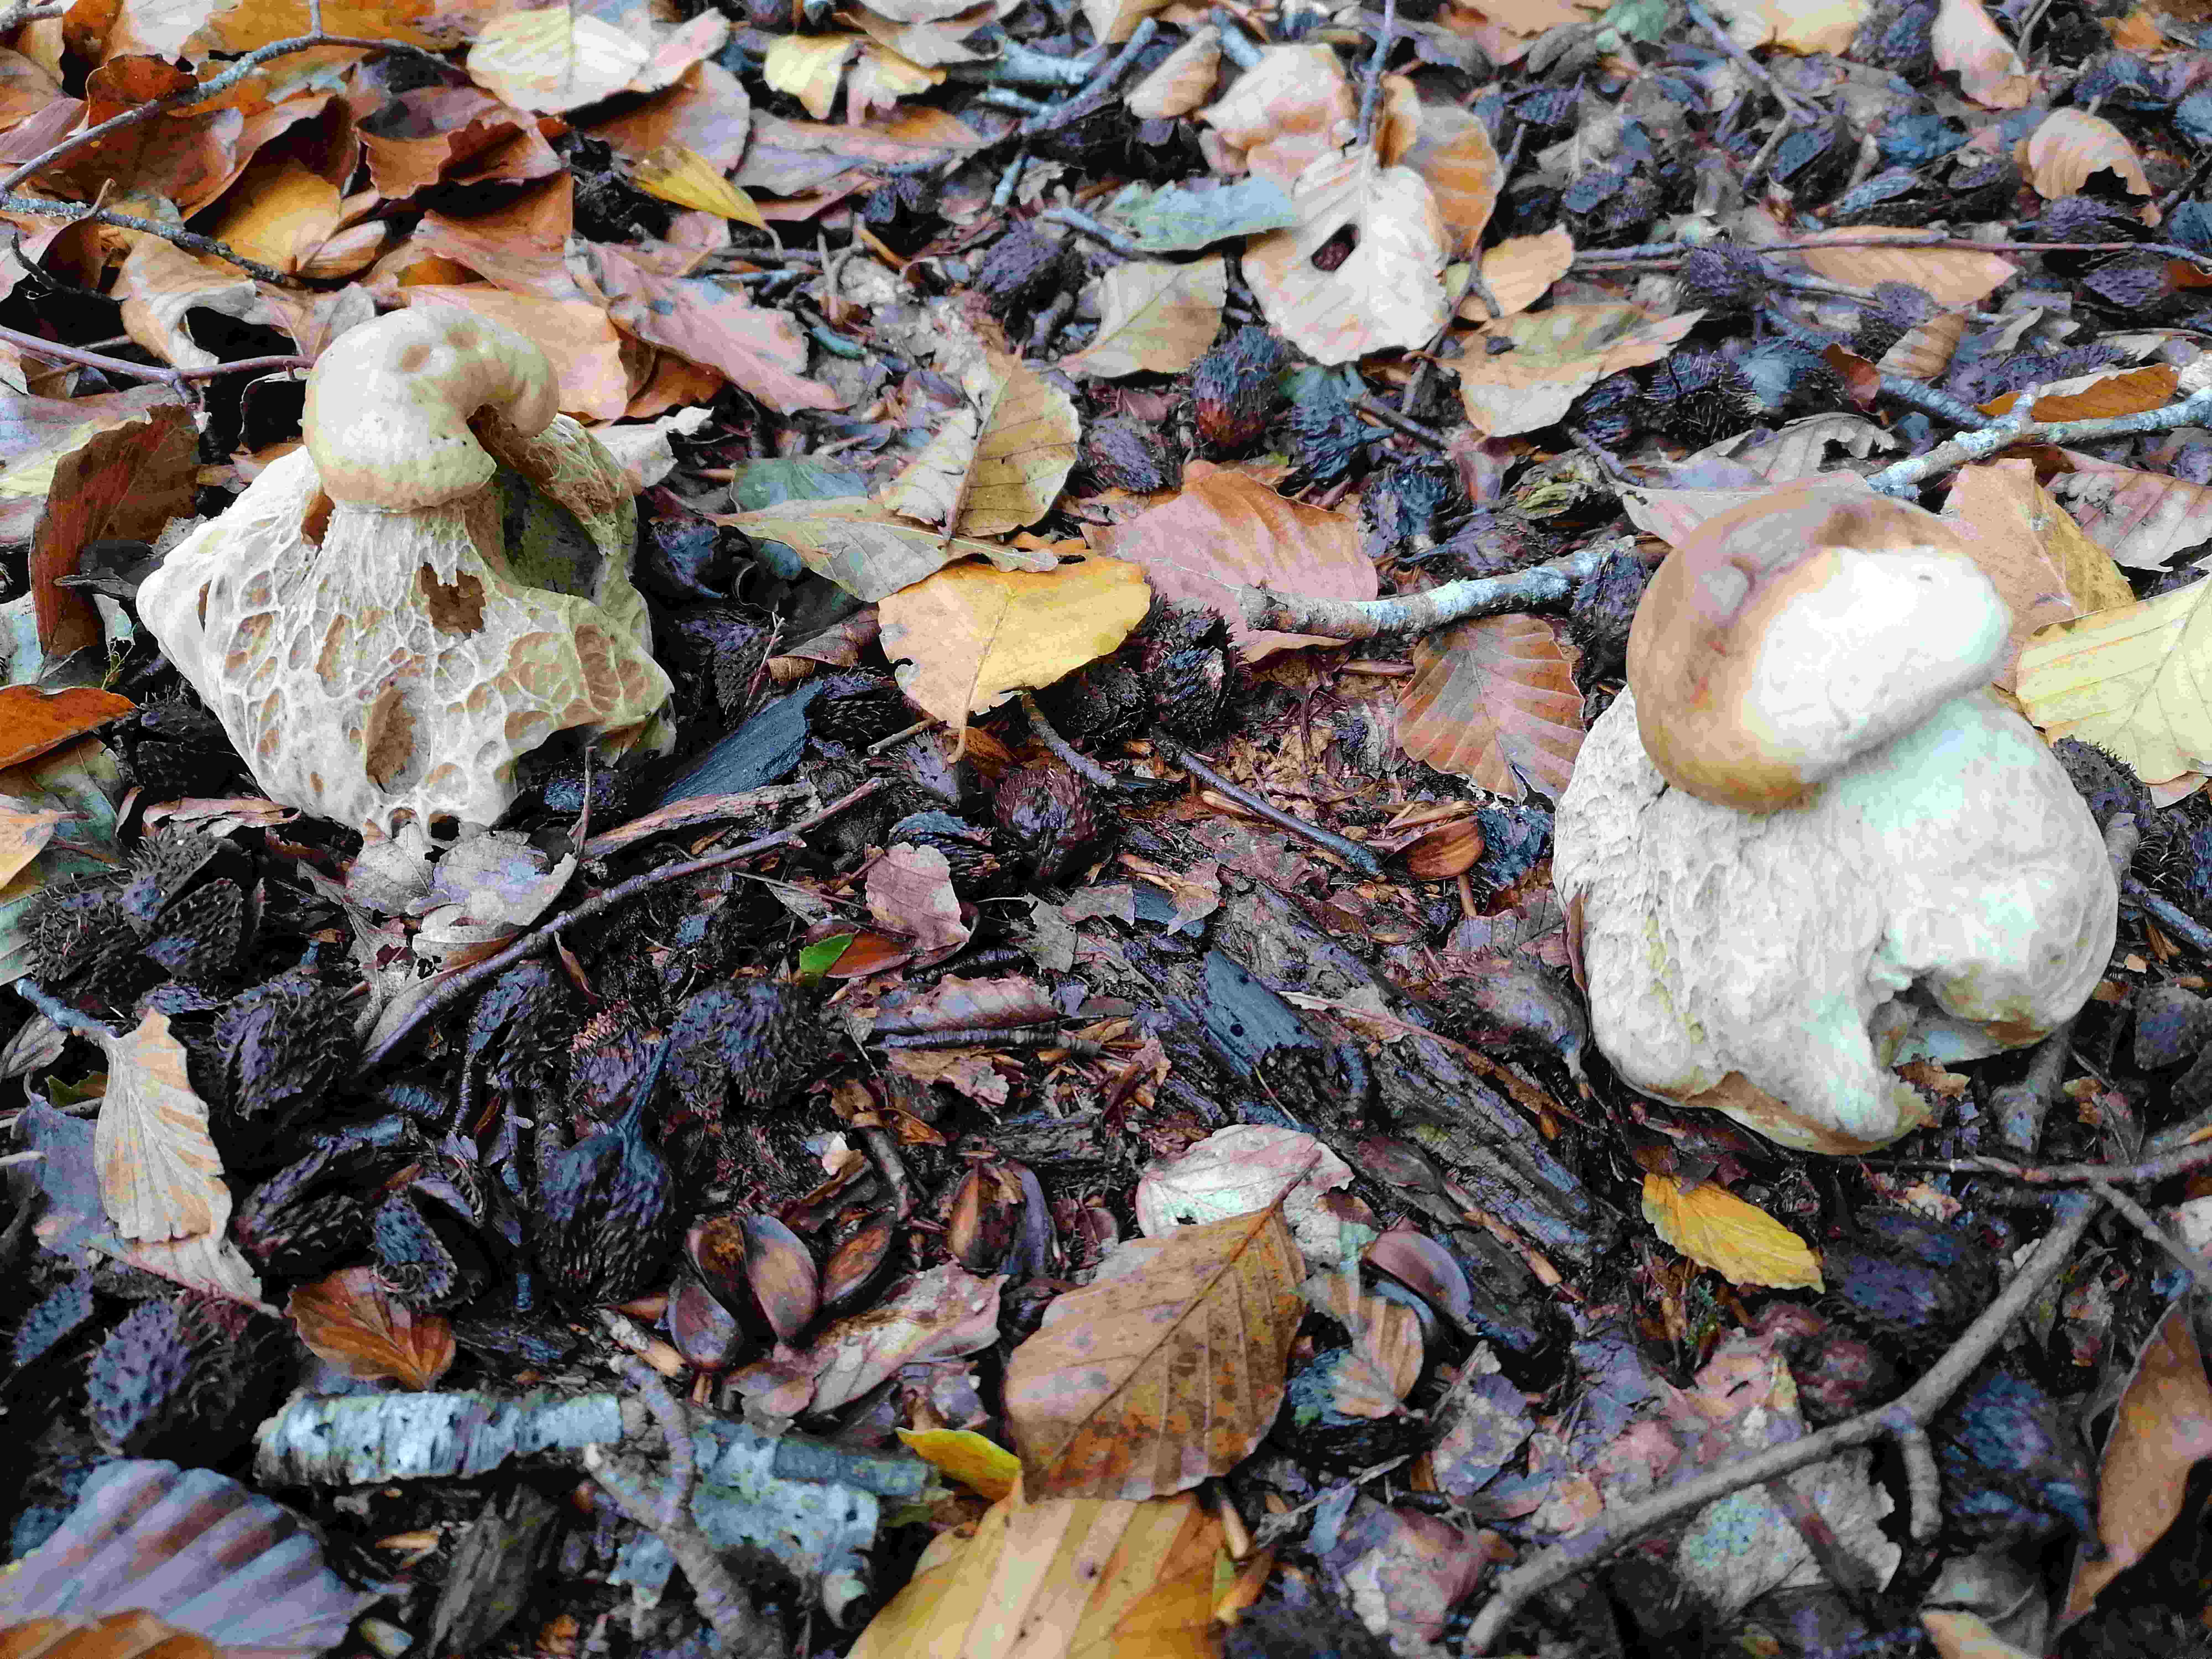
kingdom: Fungi
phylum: Basidiomycota
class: Agaricomycetes
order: Boletales
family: Boletaceae
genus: Boletus
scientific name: Boletus edulis
